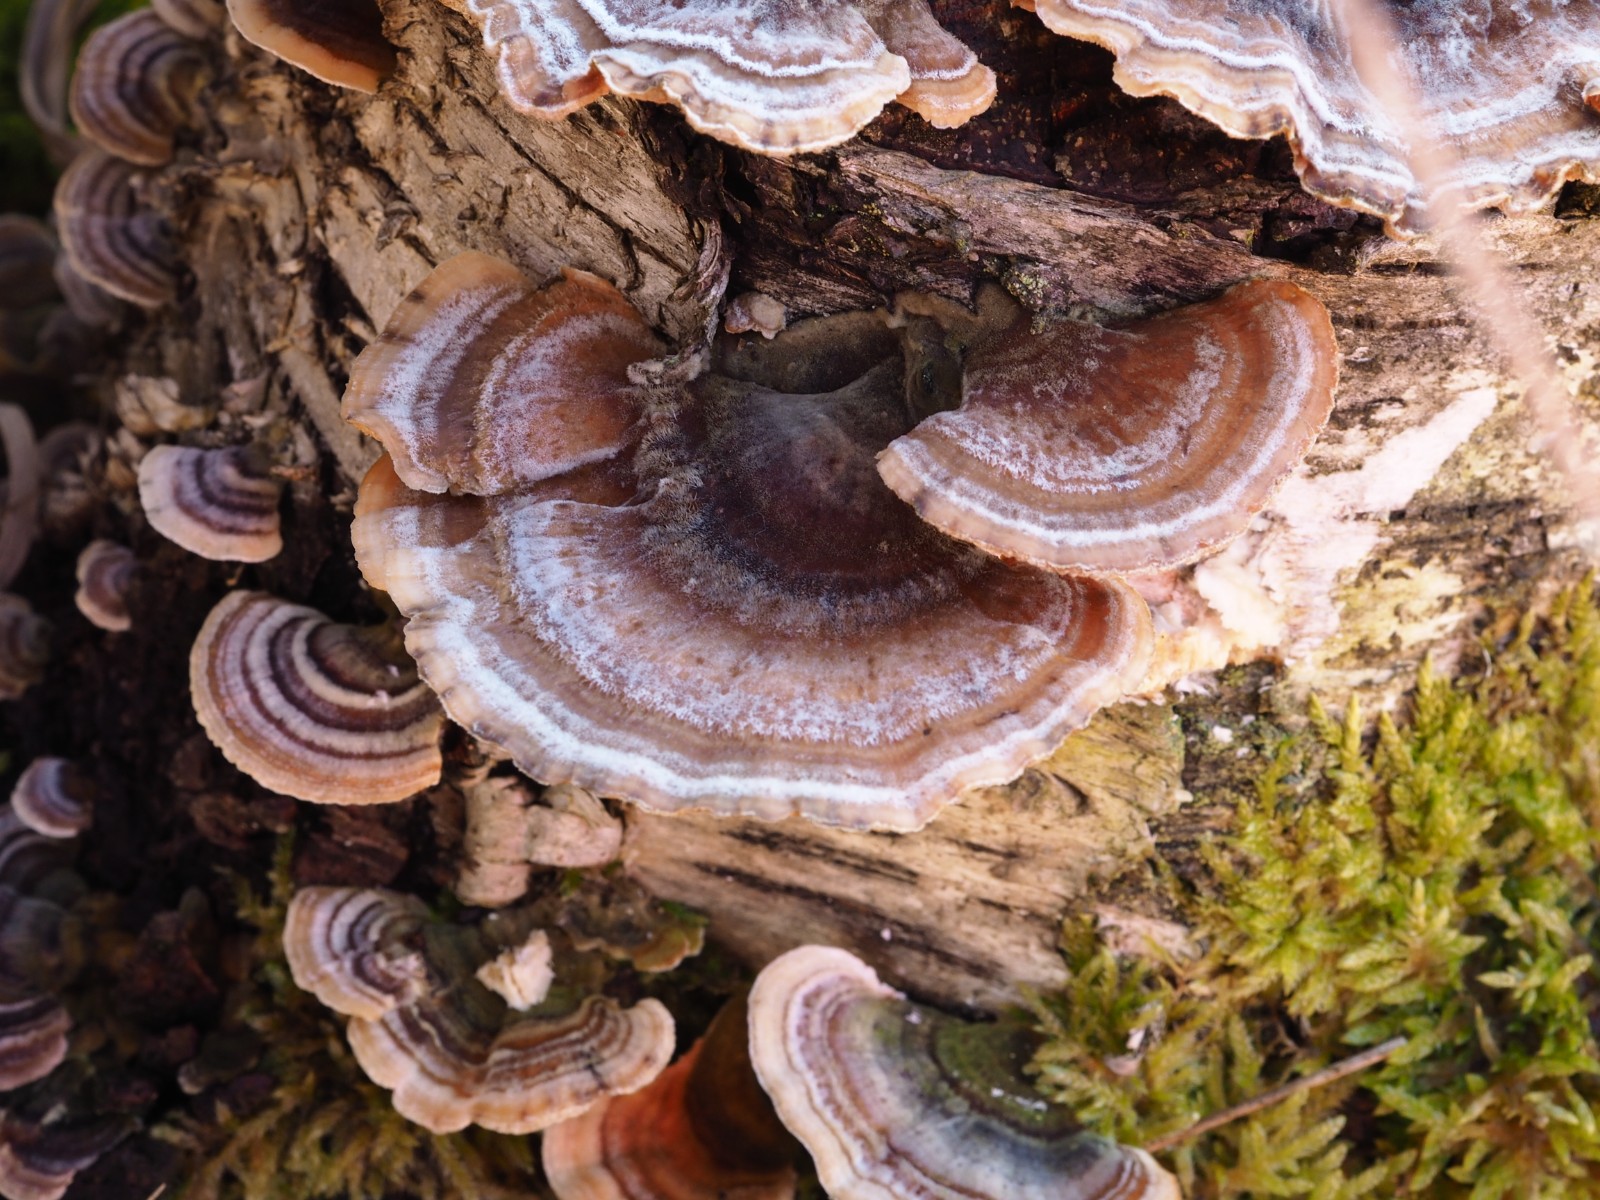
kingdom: Fungi
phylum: Basidiomycota
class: Agaricomycetes
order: Polyporales
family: Polyporaceae
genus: Trametes
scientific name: Trametes versicolor
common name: broget læderporesvamp
